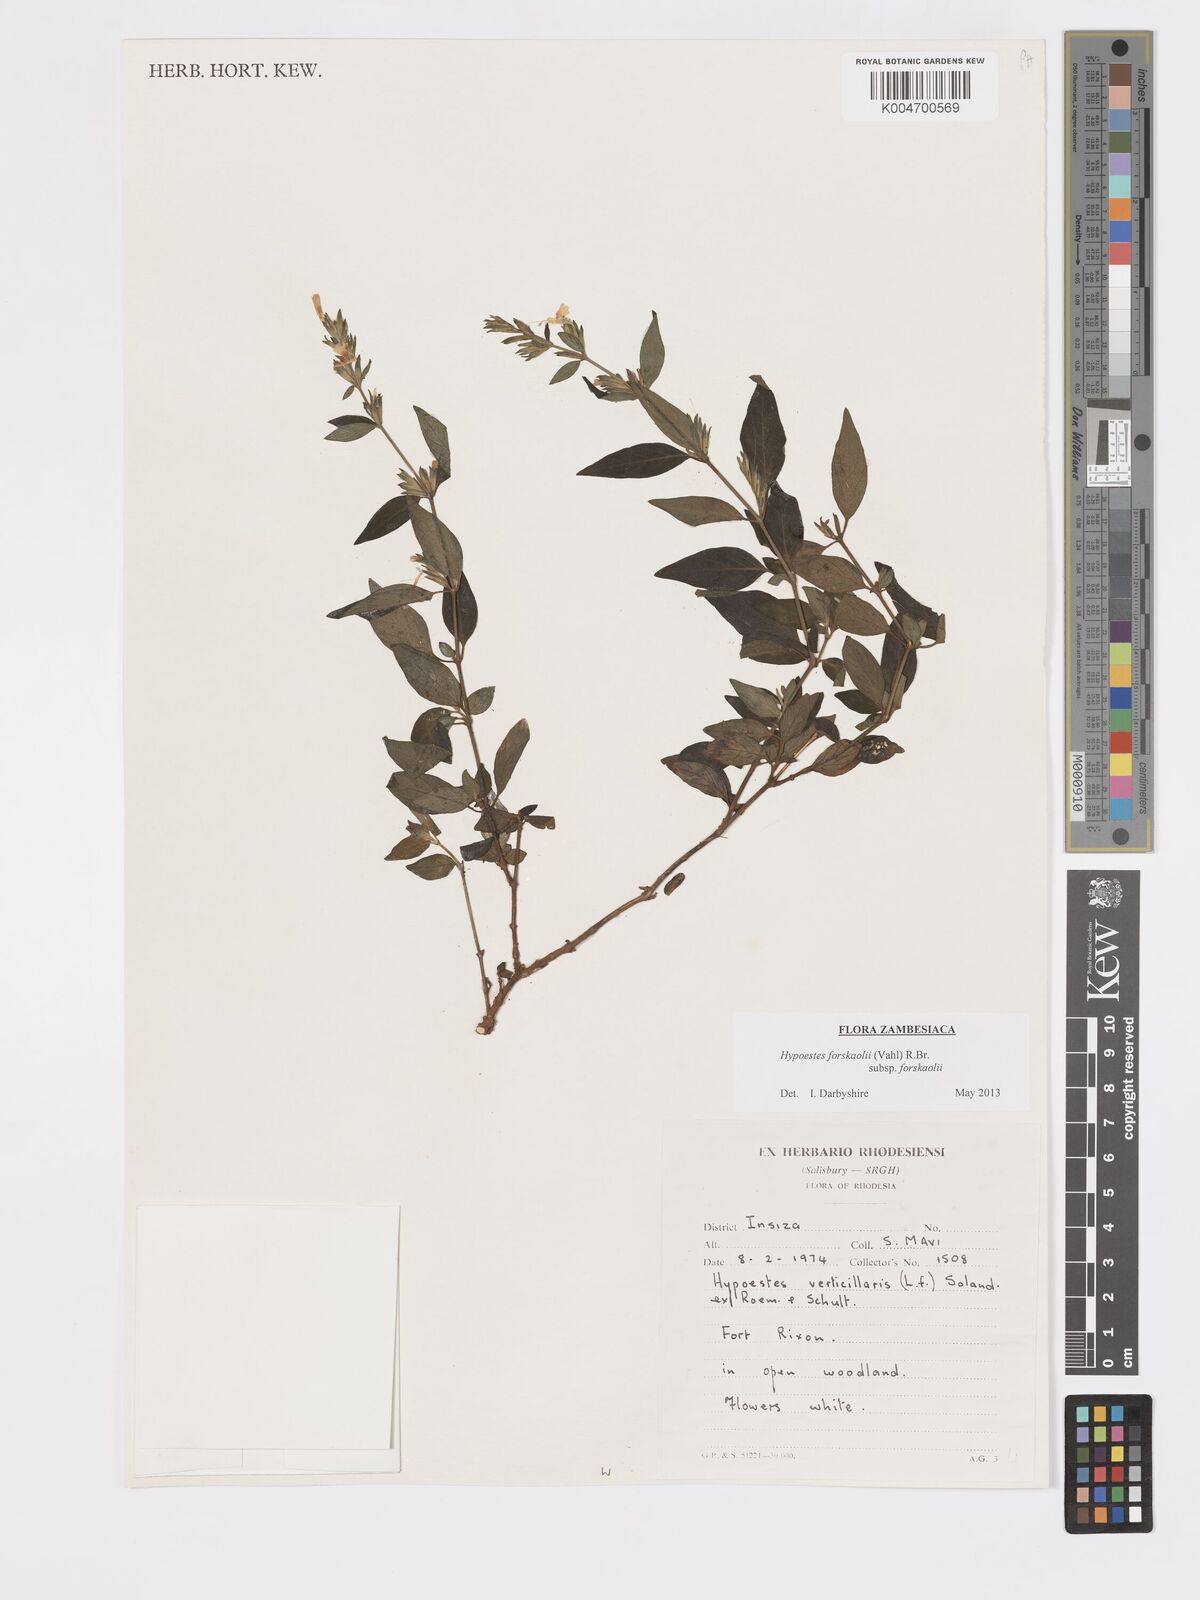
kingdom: Plantae
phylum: Tracheophyta
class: Magnoliopsida
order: Lamiales
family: Acanthaceae
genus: Hypoestes
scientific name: Hypoestes forskaolii
